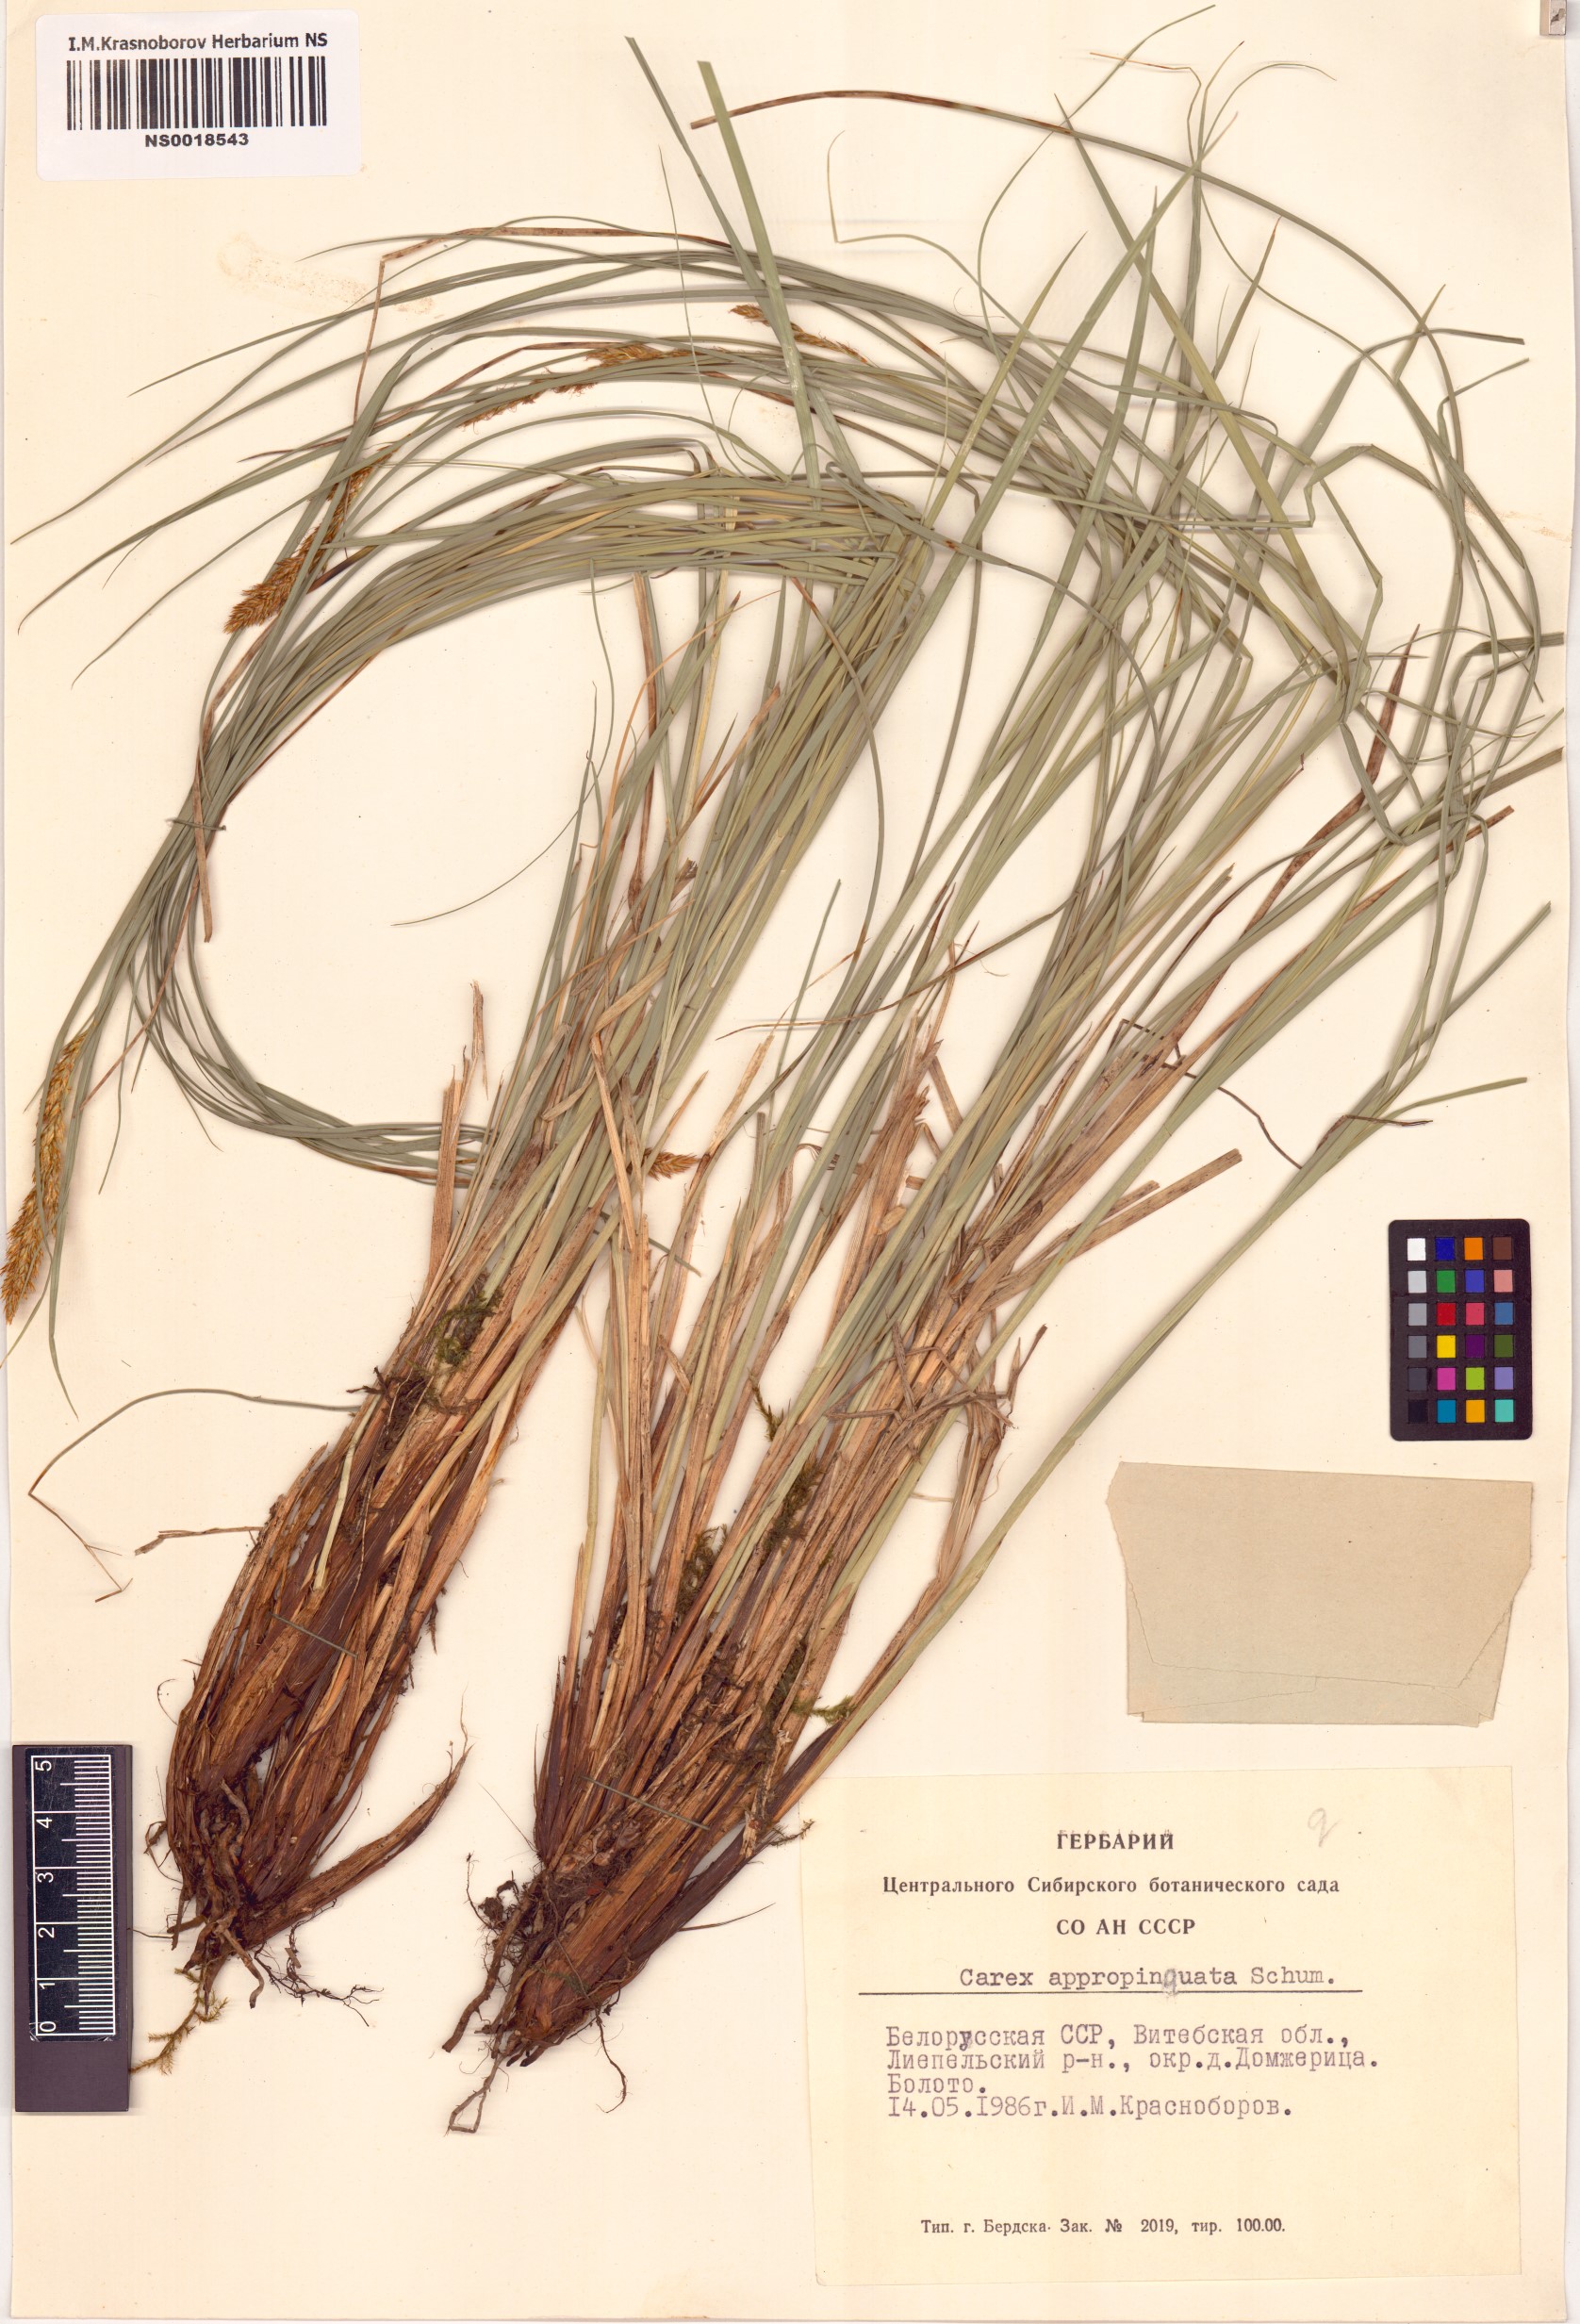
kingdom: Plantae
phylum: Tracheophyta
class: Liliopsida
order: Poales
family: Cyperaceae
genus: Carex
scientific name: Carex appropinquata
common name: Fibrous tussock-sedge
